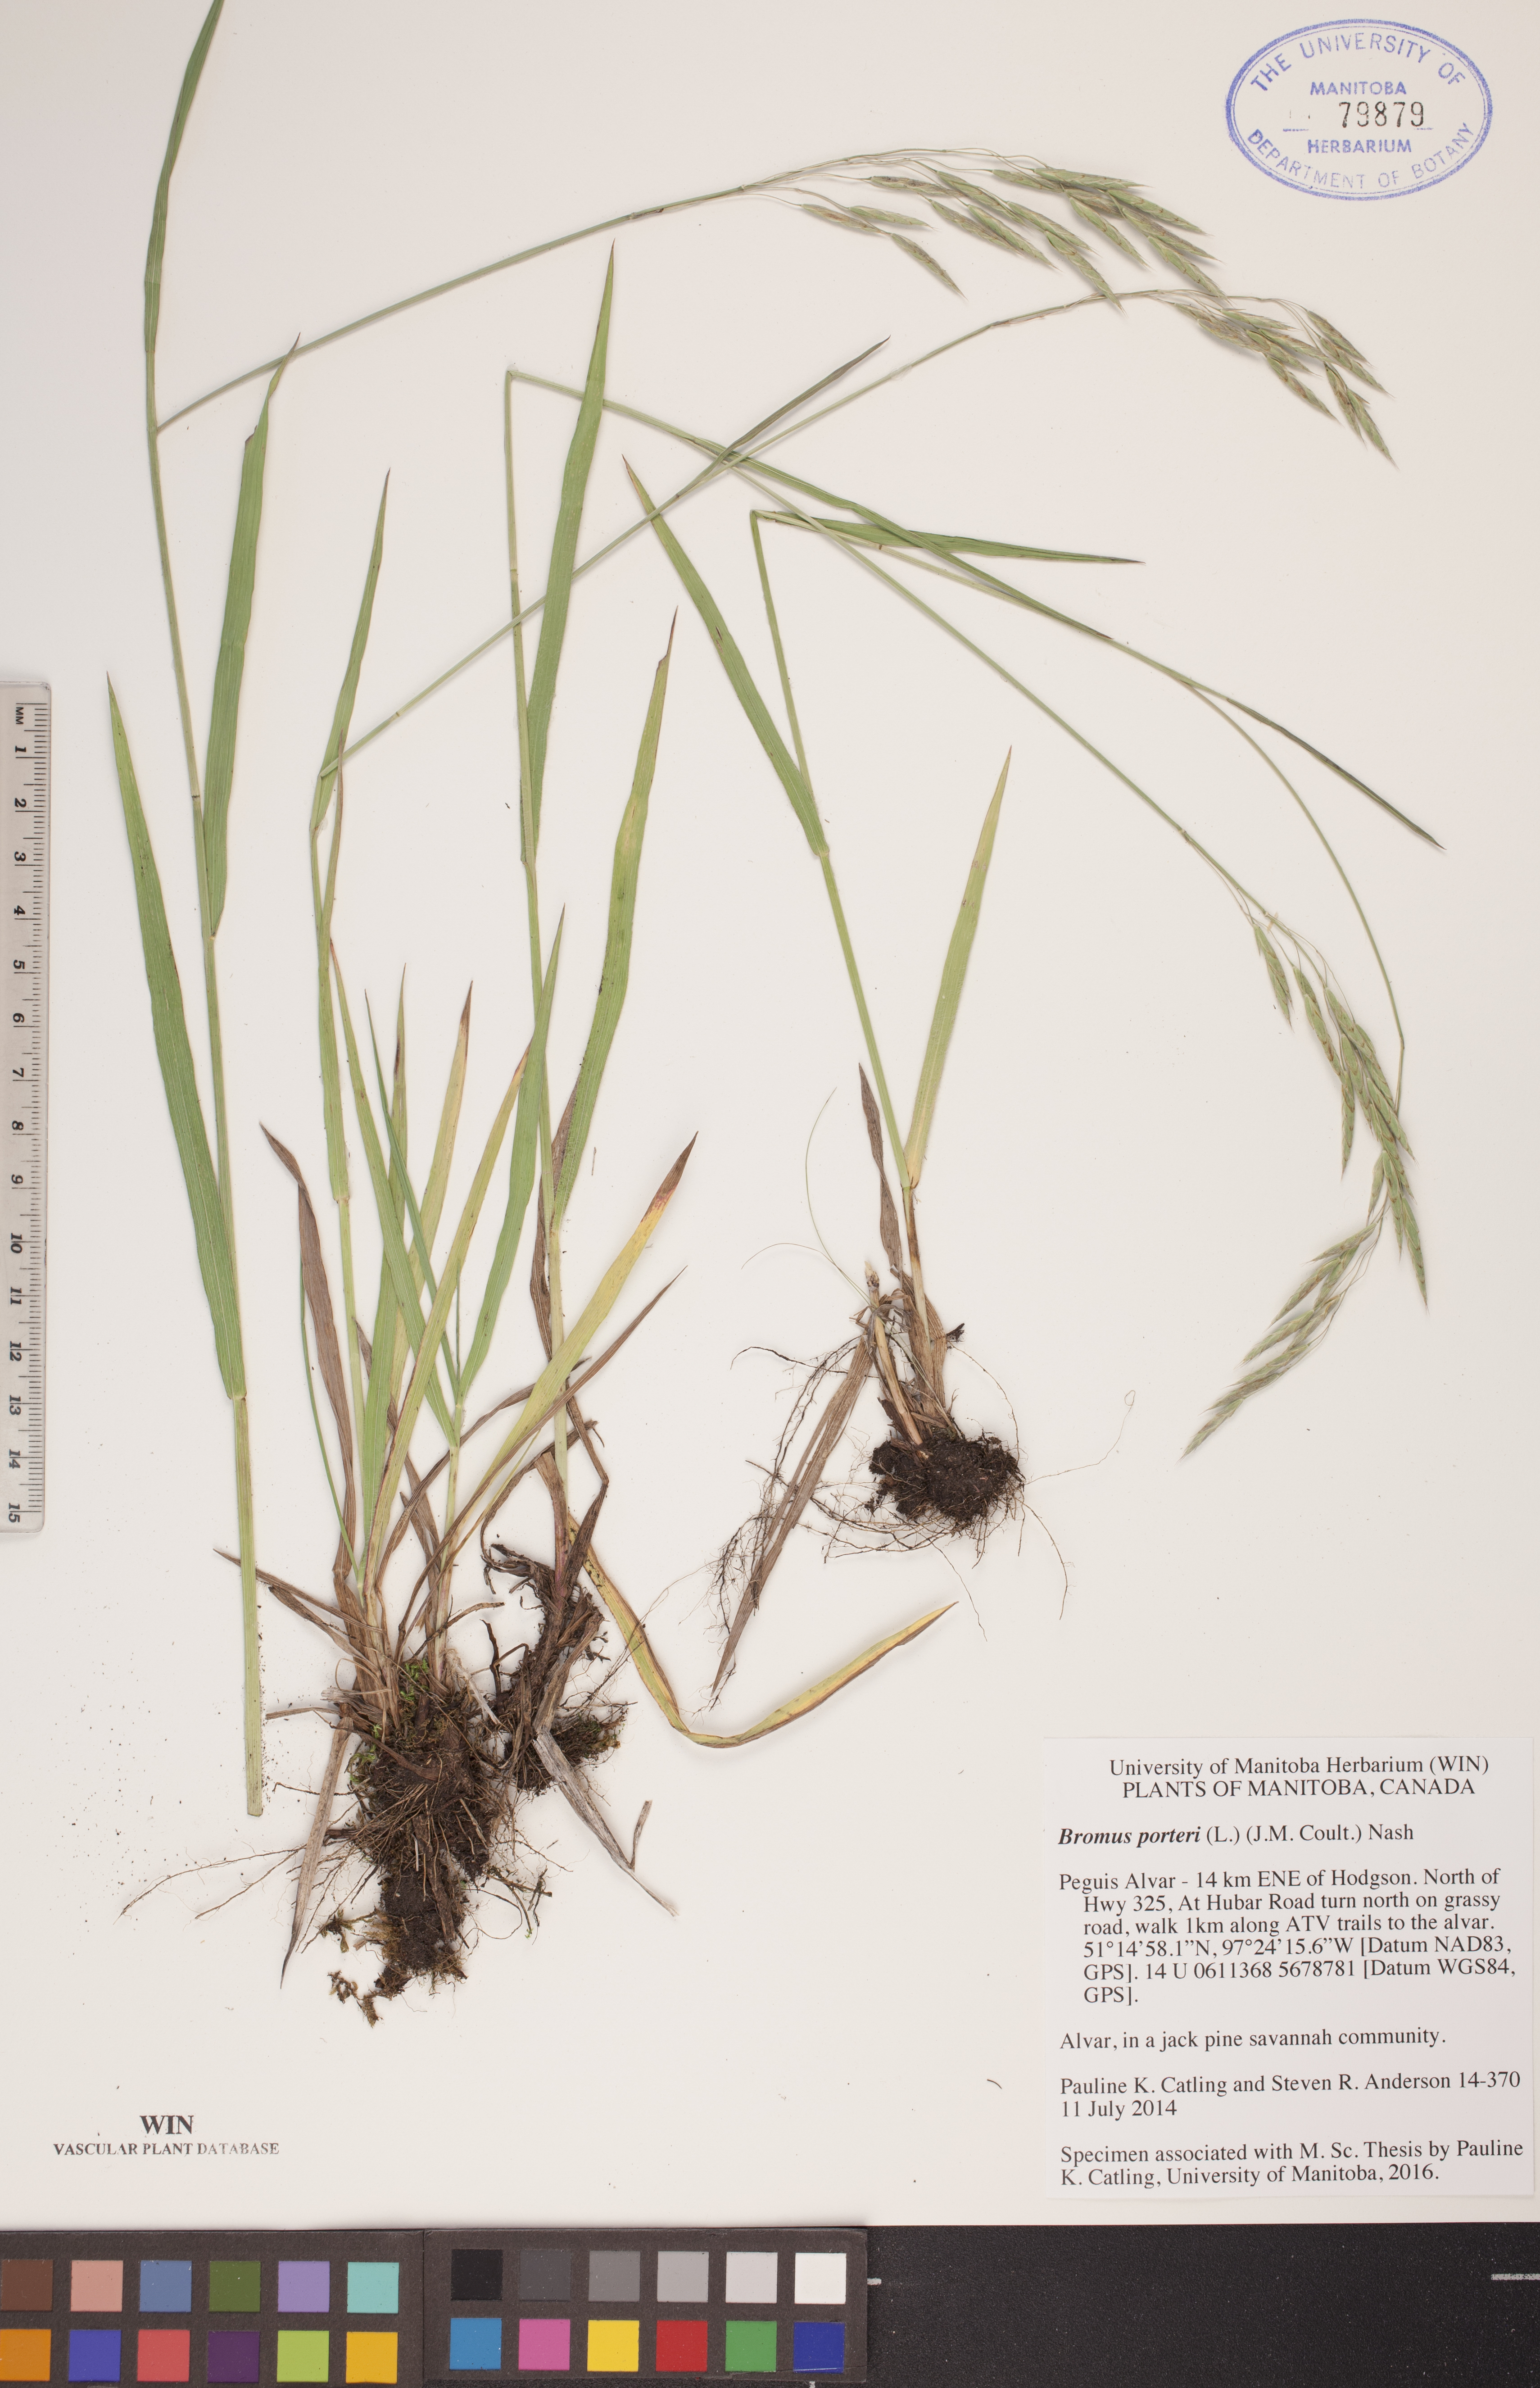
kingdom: Plantae
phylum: Tracheophyta
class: Liliopsida
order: Poales
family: Poaceae
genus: Bromus
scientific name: Bromus porteri
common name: Nodding brome
